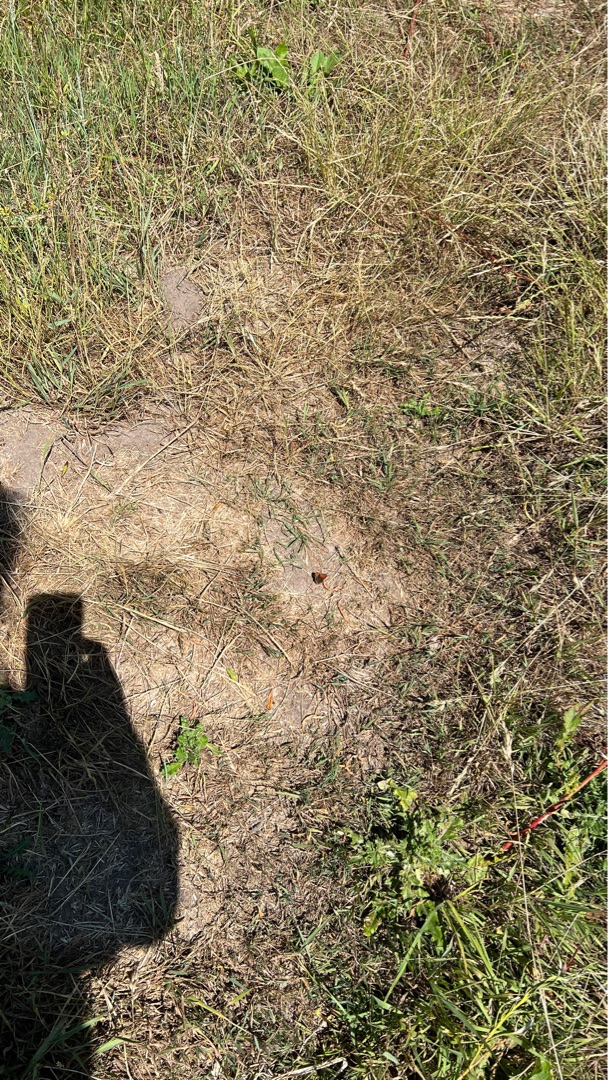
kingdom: Animalia
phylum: Arthropoda
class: Insecta
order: Lepidoptera
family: Lycaenidae
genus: Lycaena
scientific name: Lycaena phlaeas
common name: Lille ildfugl
